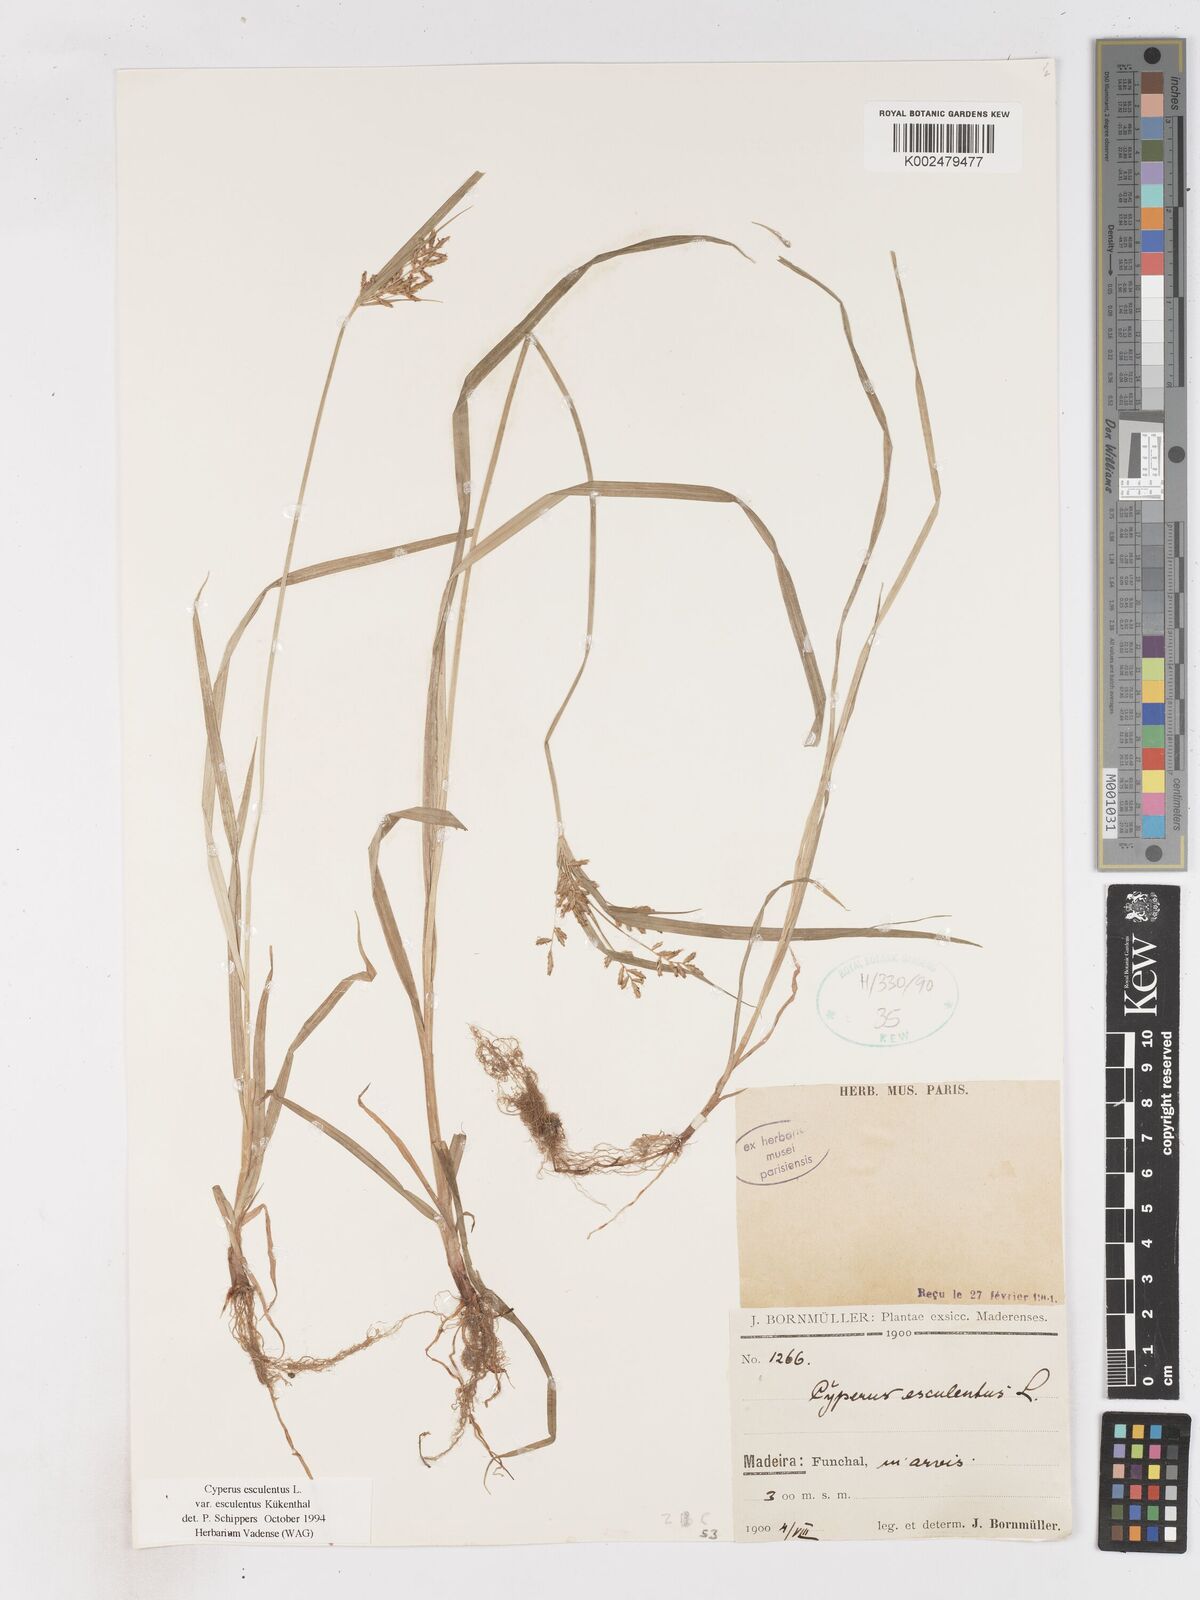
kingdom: Plantae
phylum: Tracheophyta
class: Liliopsida
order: Poales
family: Cyperaceae
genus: Cyperus
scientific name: Cyperus esculentus
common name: Yellow nutsedge
